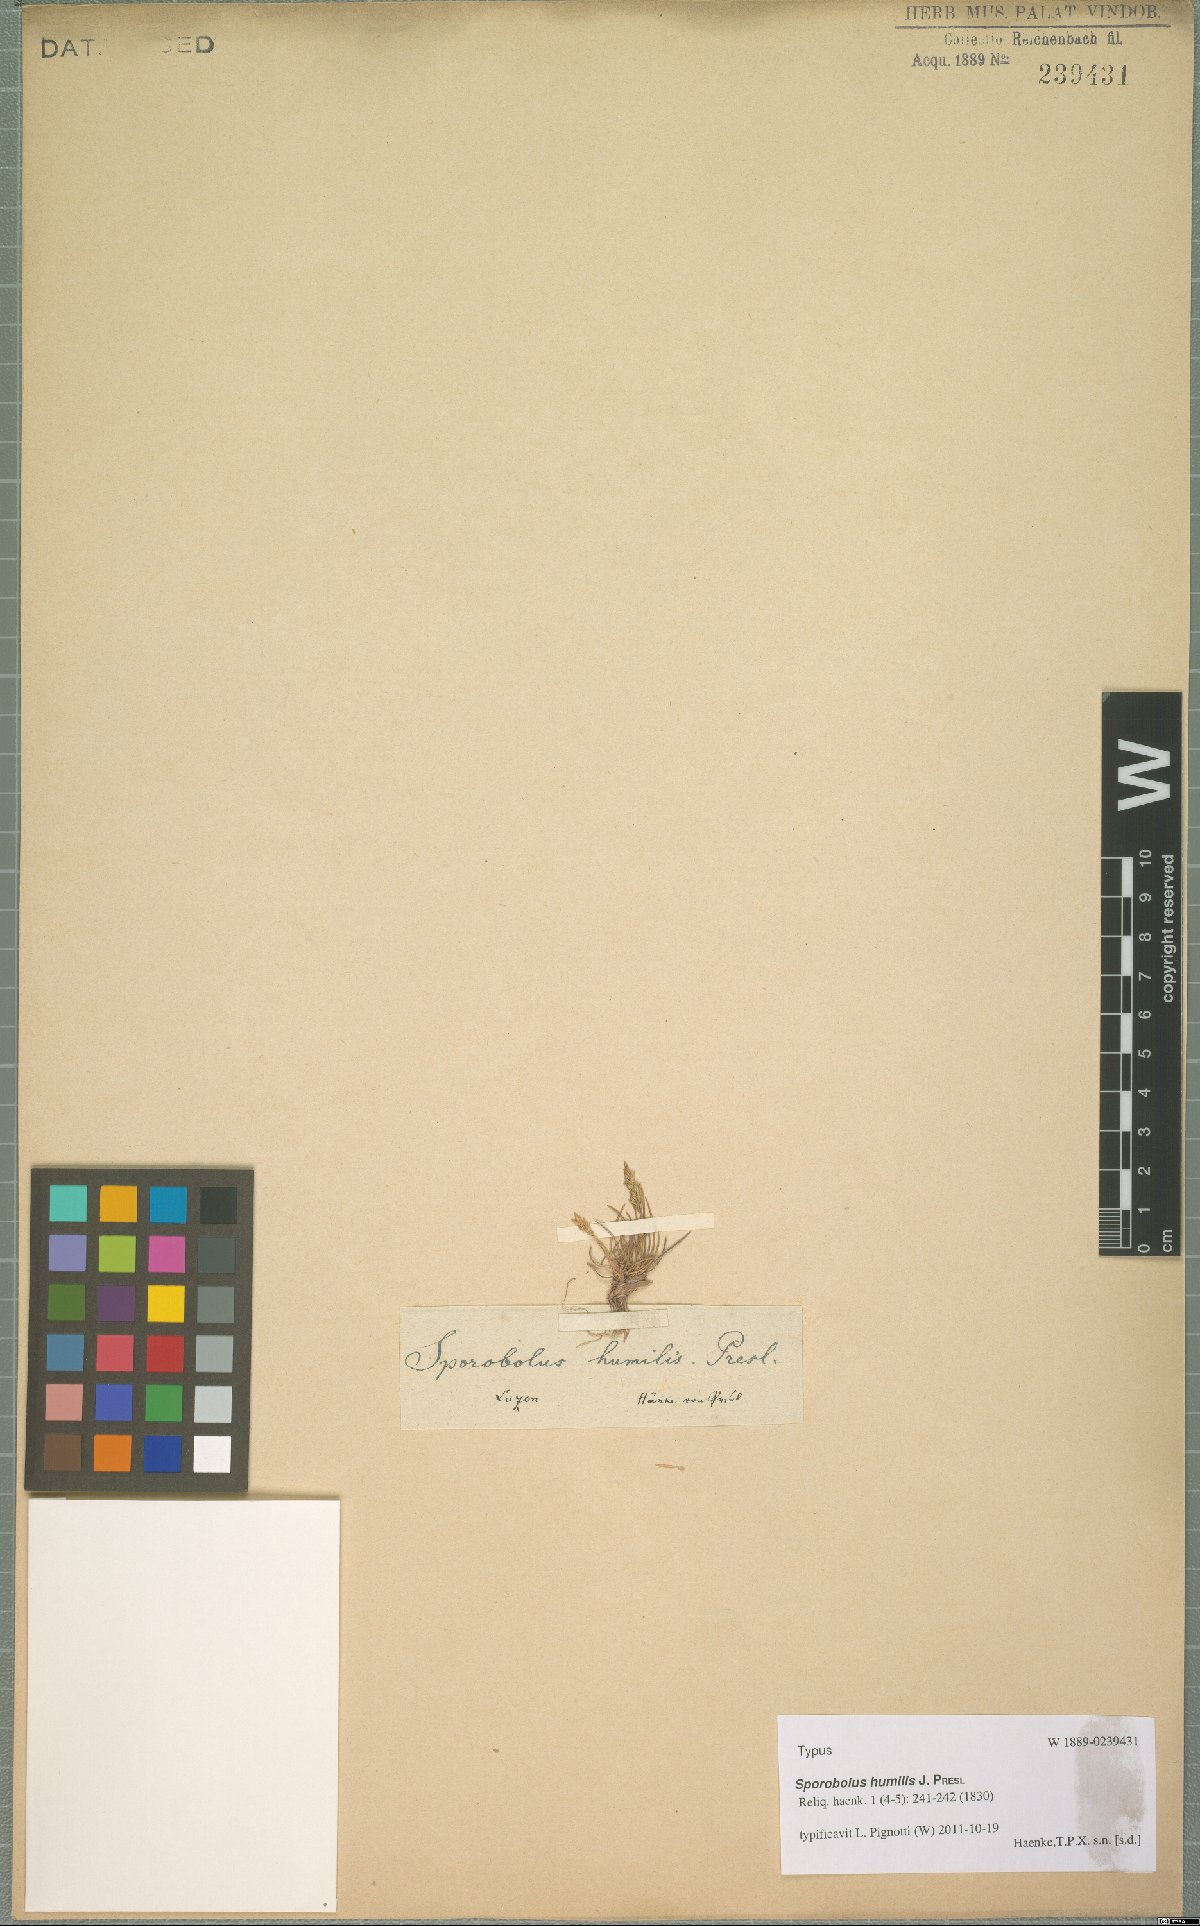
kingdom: Plantae
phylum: Tracheophyta
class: Liliopsida
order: Poales
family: Poaceae
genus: Sporobolus
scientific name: Sporobolus humilis
